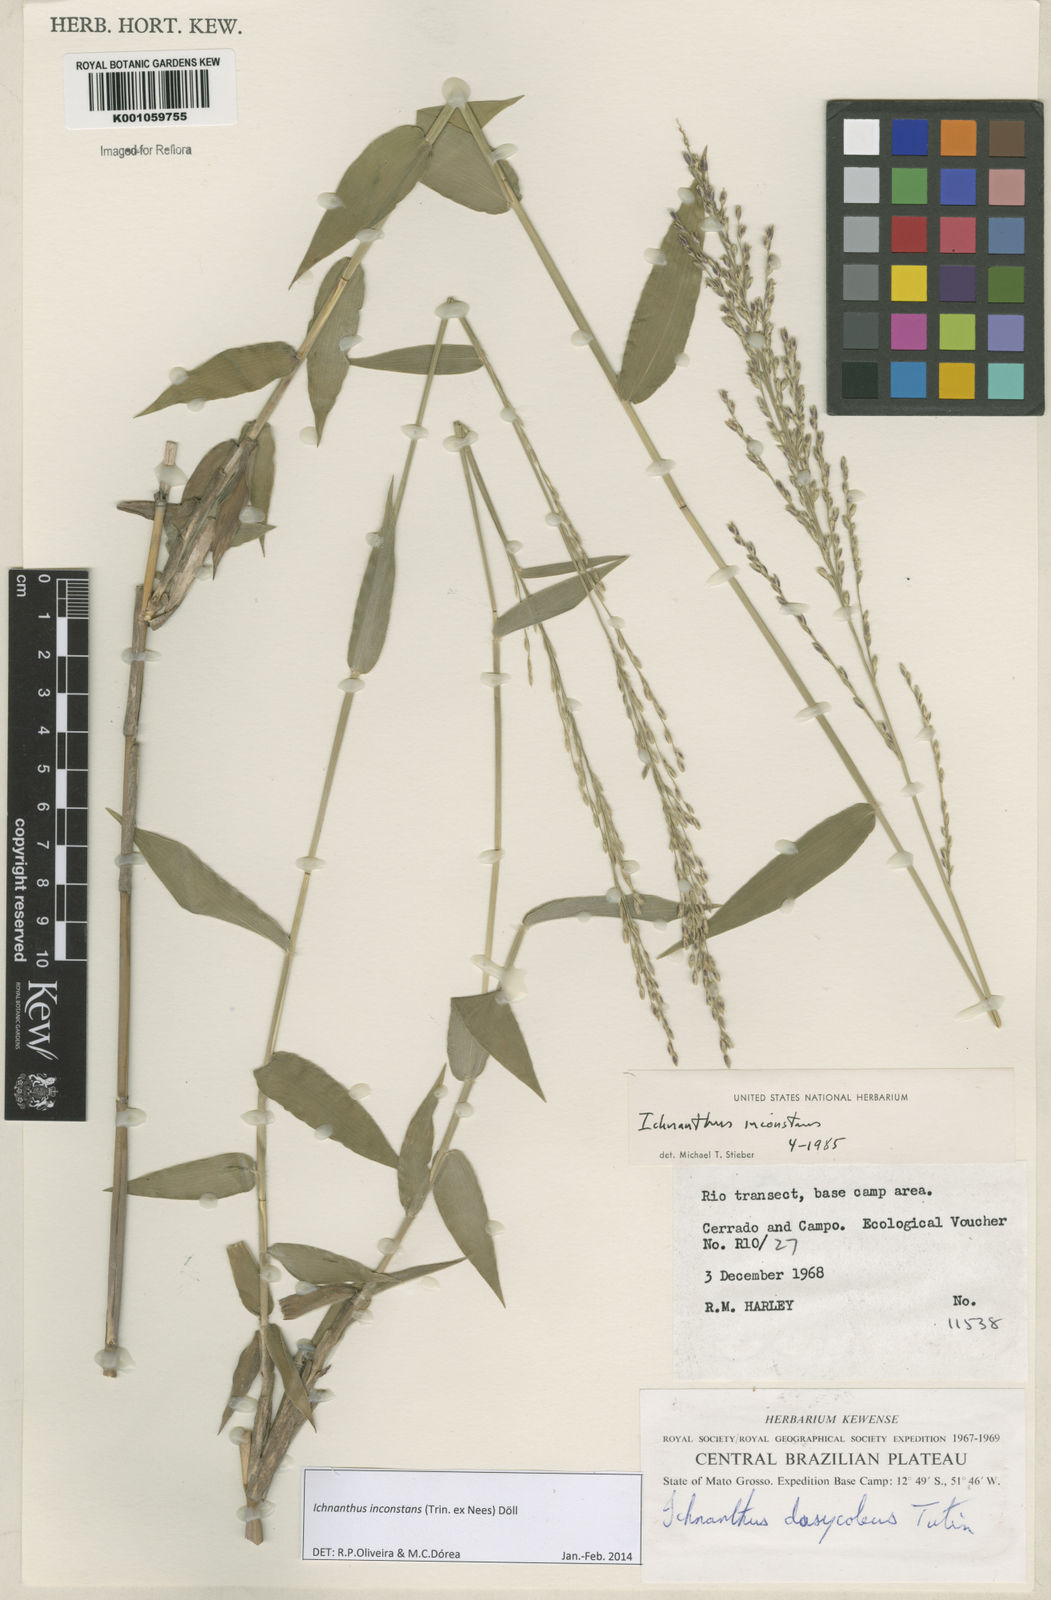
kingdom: Plantae
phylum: Tracheophyta
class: Liliopsida
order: Poales
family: Poaceae
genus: Ichnanthus
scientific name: Ichnanthus
